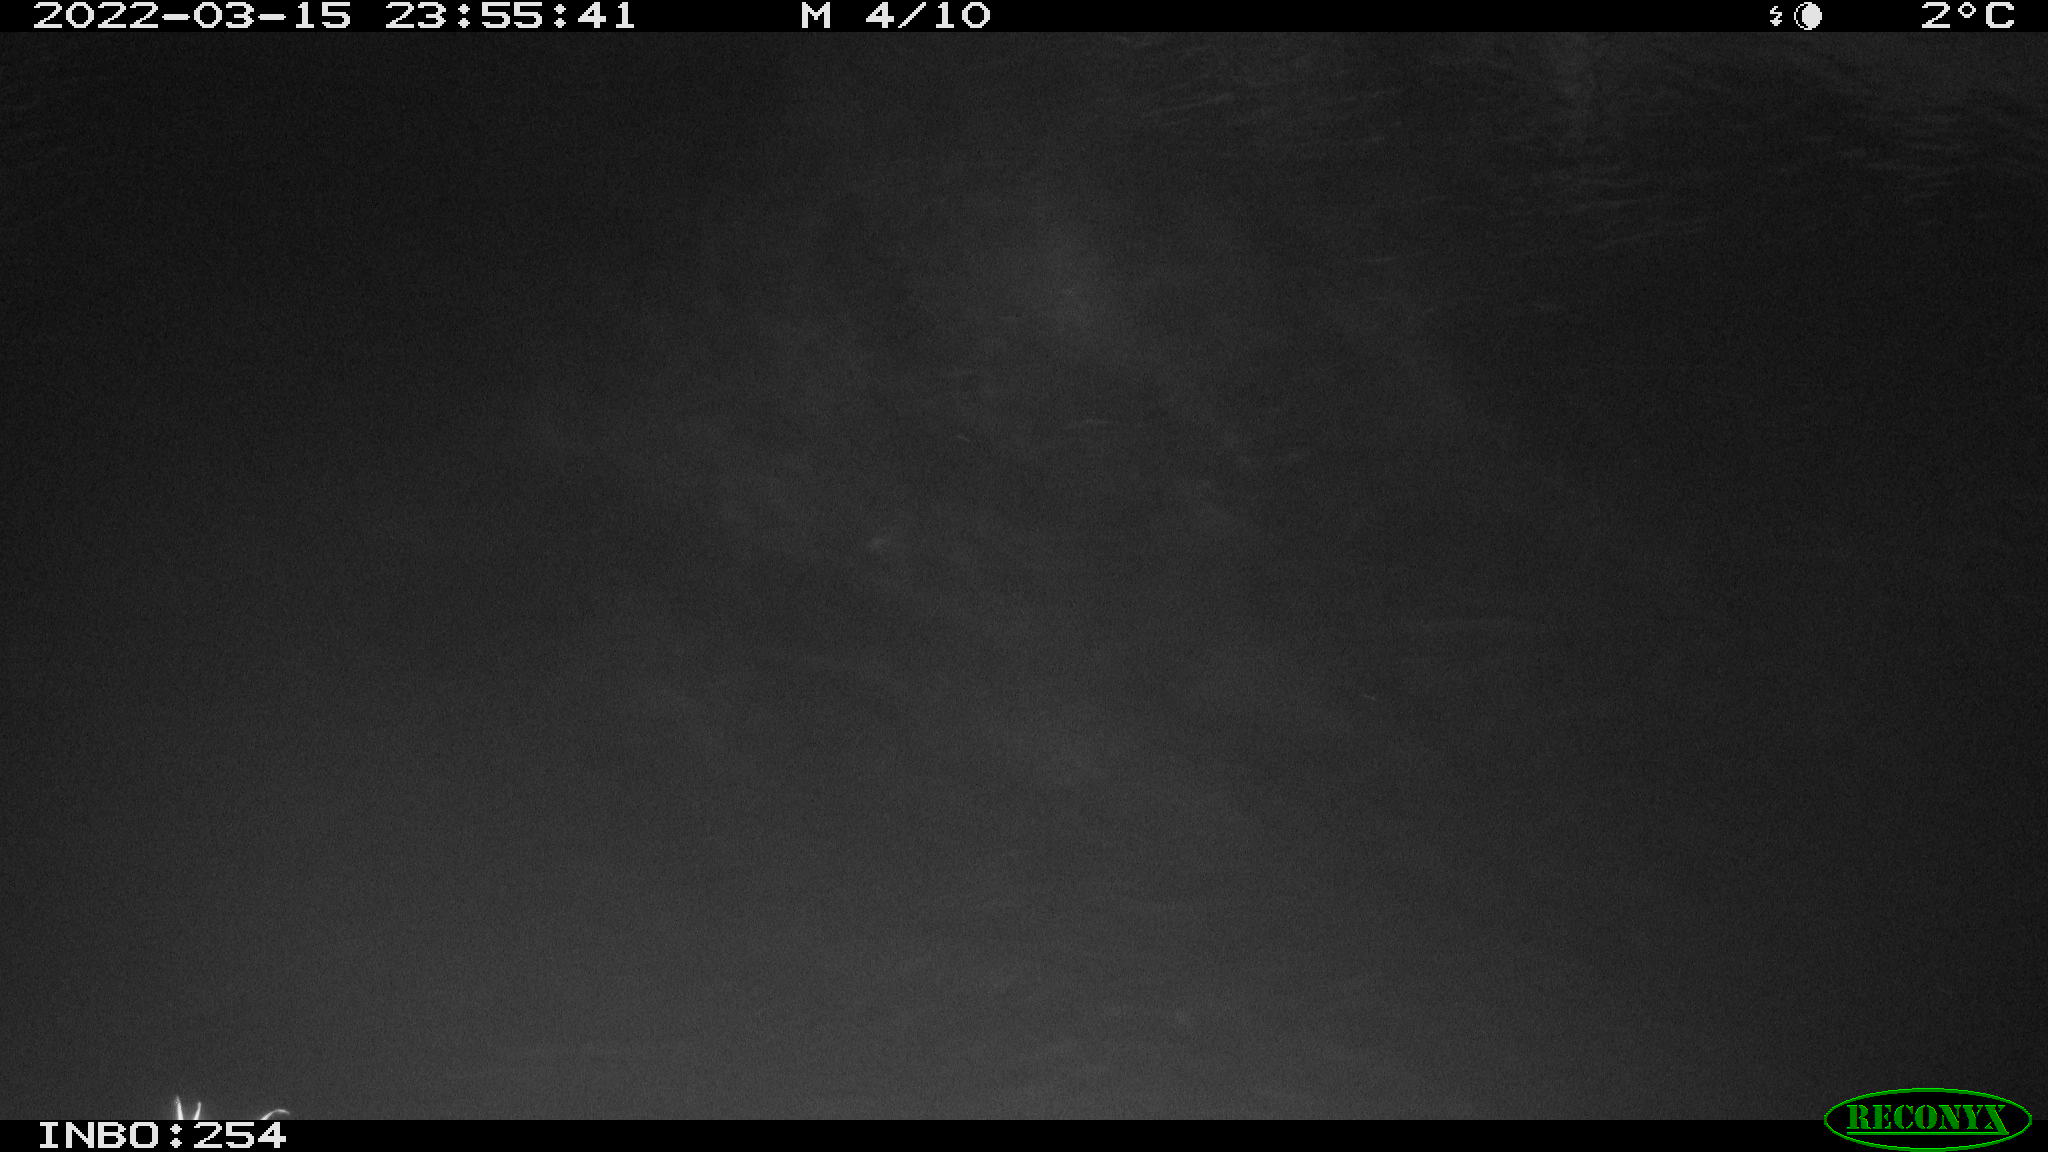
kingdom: Animalia
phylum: Chordata
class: Aves
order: Anseriformes
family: Anatidae
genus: Anas
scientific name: Anas platyrhynchos
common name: Mallard
